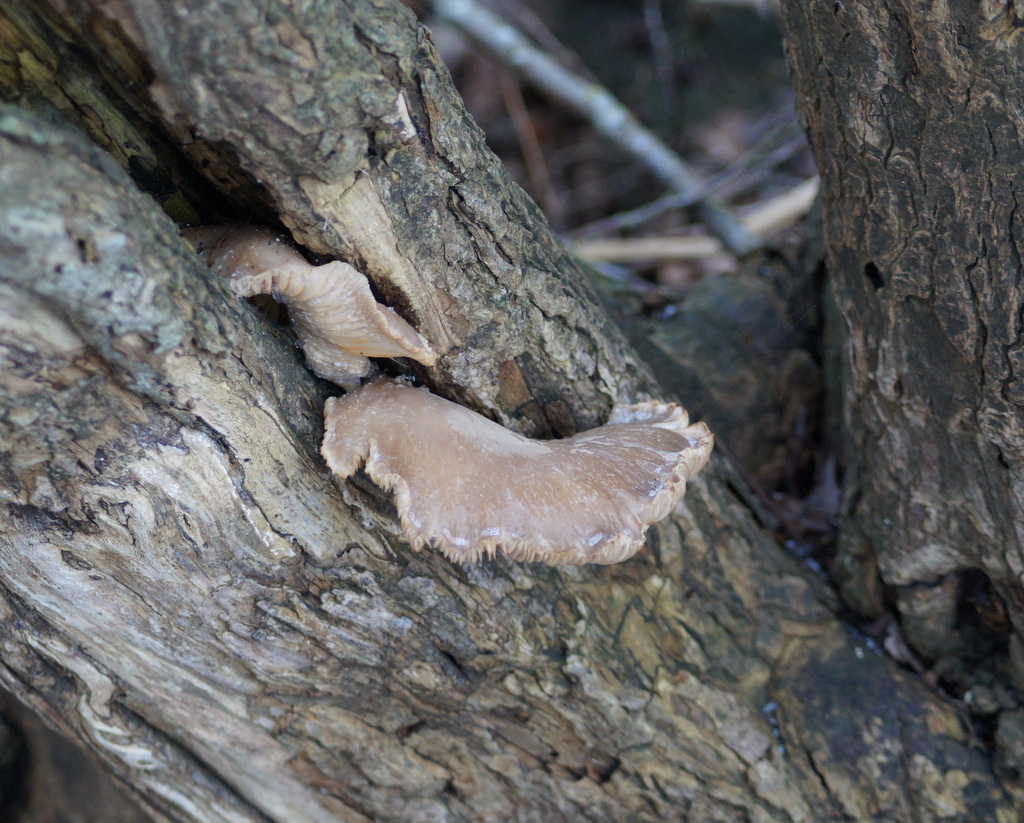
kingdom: Fungi
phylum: Basidiomycota
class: Agaricomycetes
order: Agaricales
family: Pleurotaceae
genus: Pleurotus
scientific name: Pleurotus ostreatus
